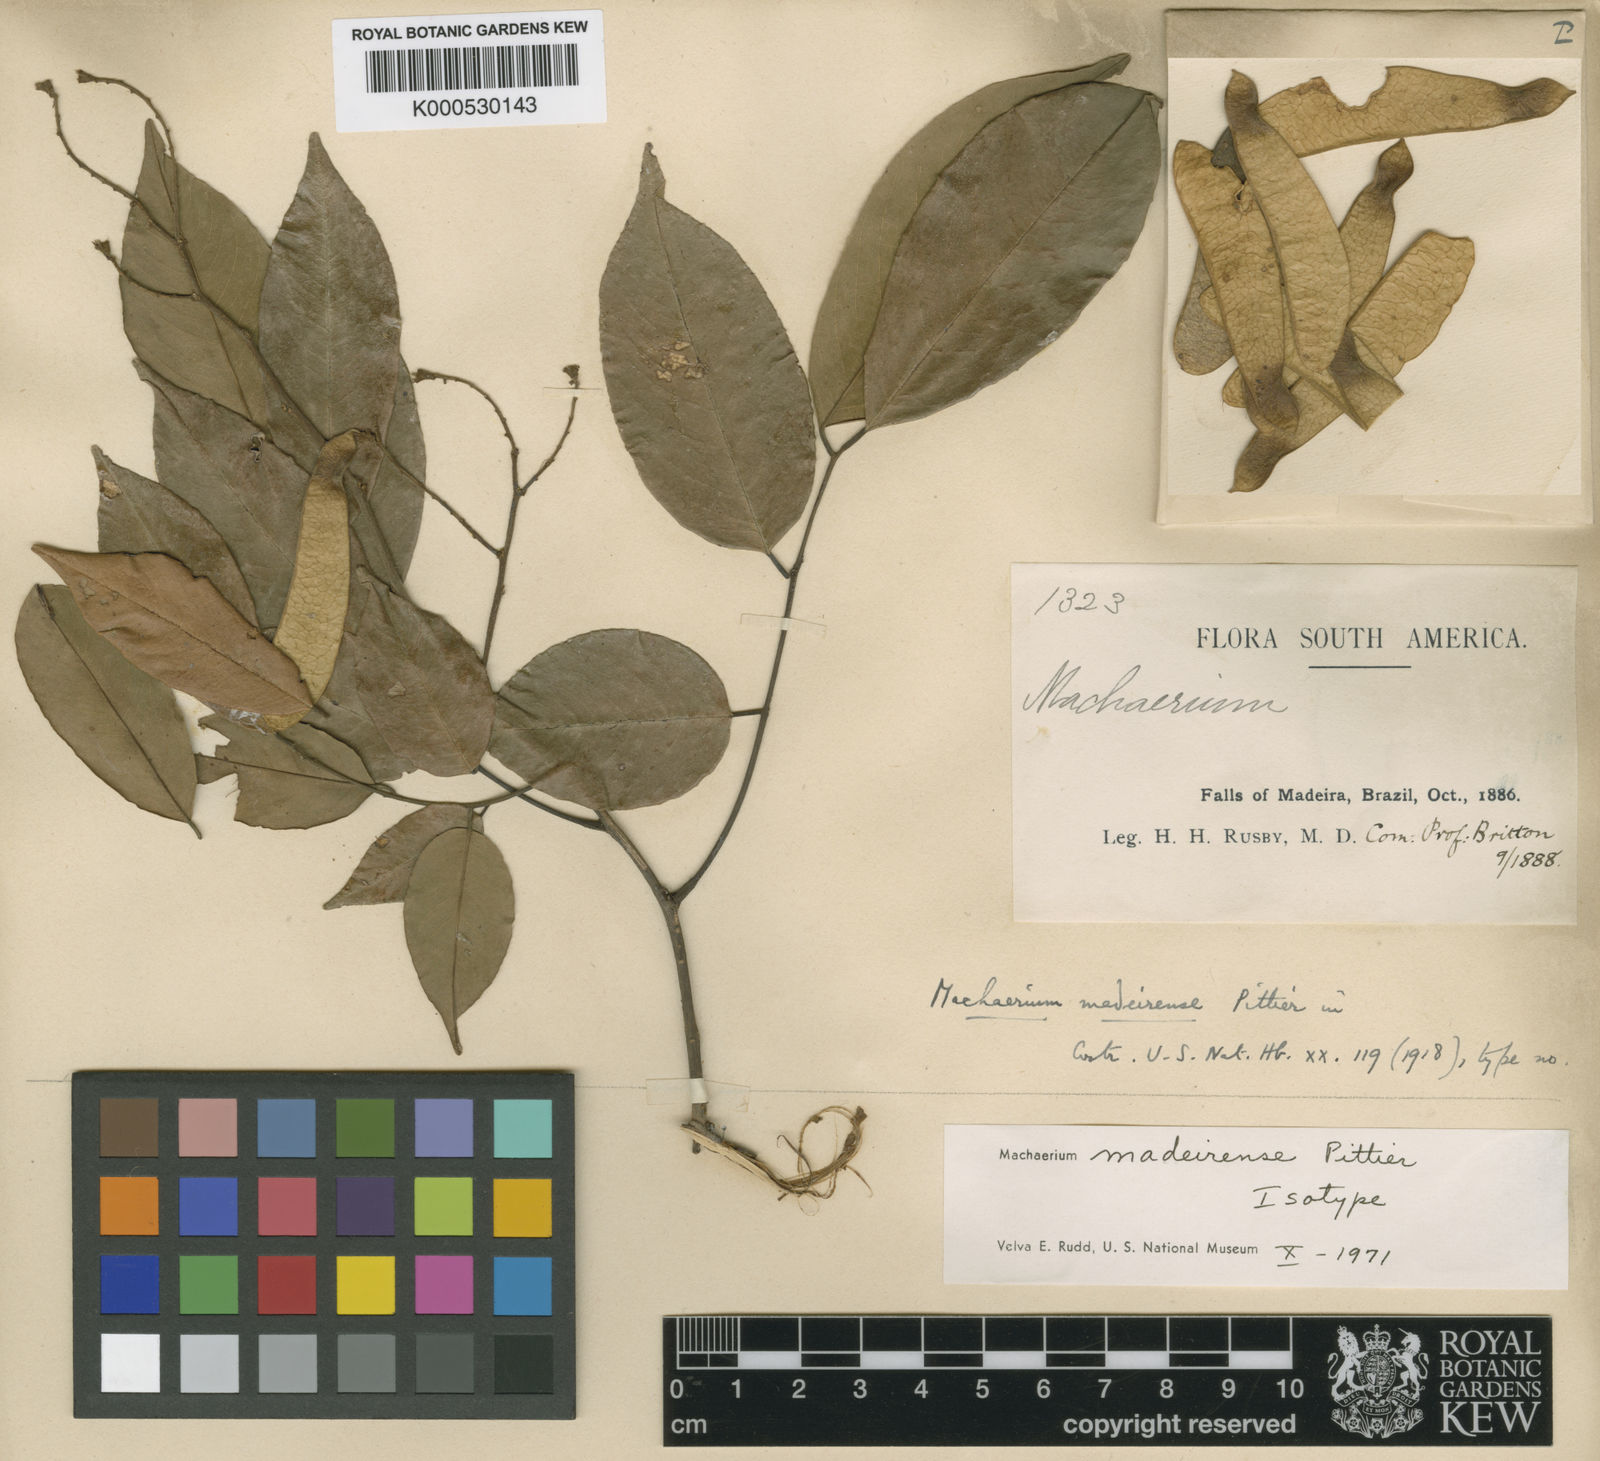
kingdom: Plantae
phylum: Tracheophyta
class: Magnoliopsida
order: Fabales
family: Fabaceae
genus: Machaerium
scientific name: Machaerium madeirense
